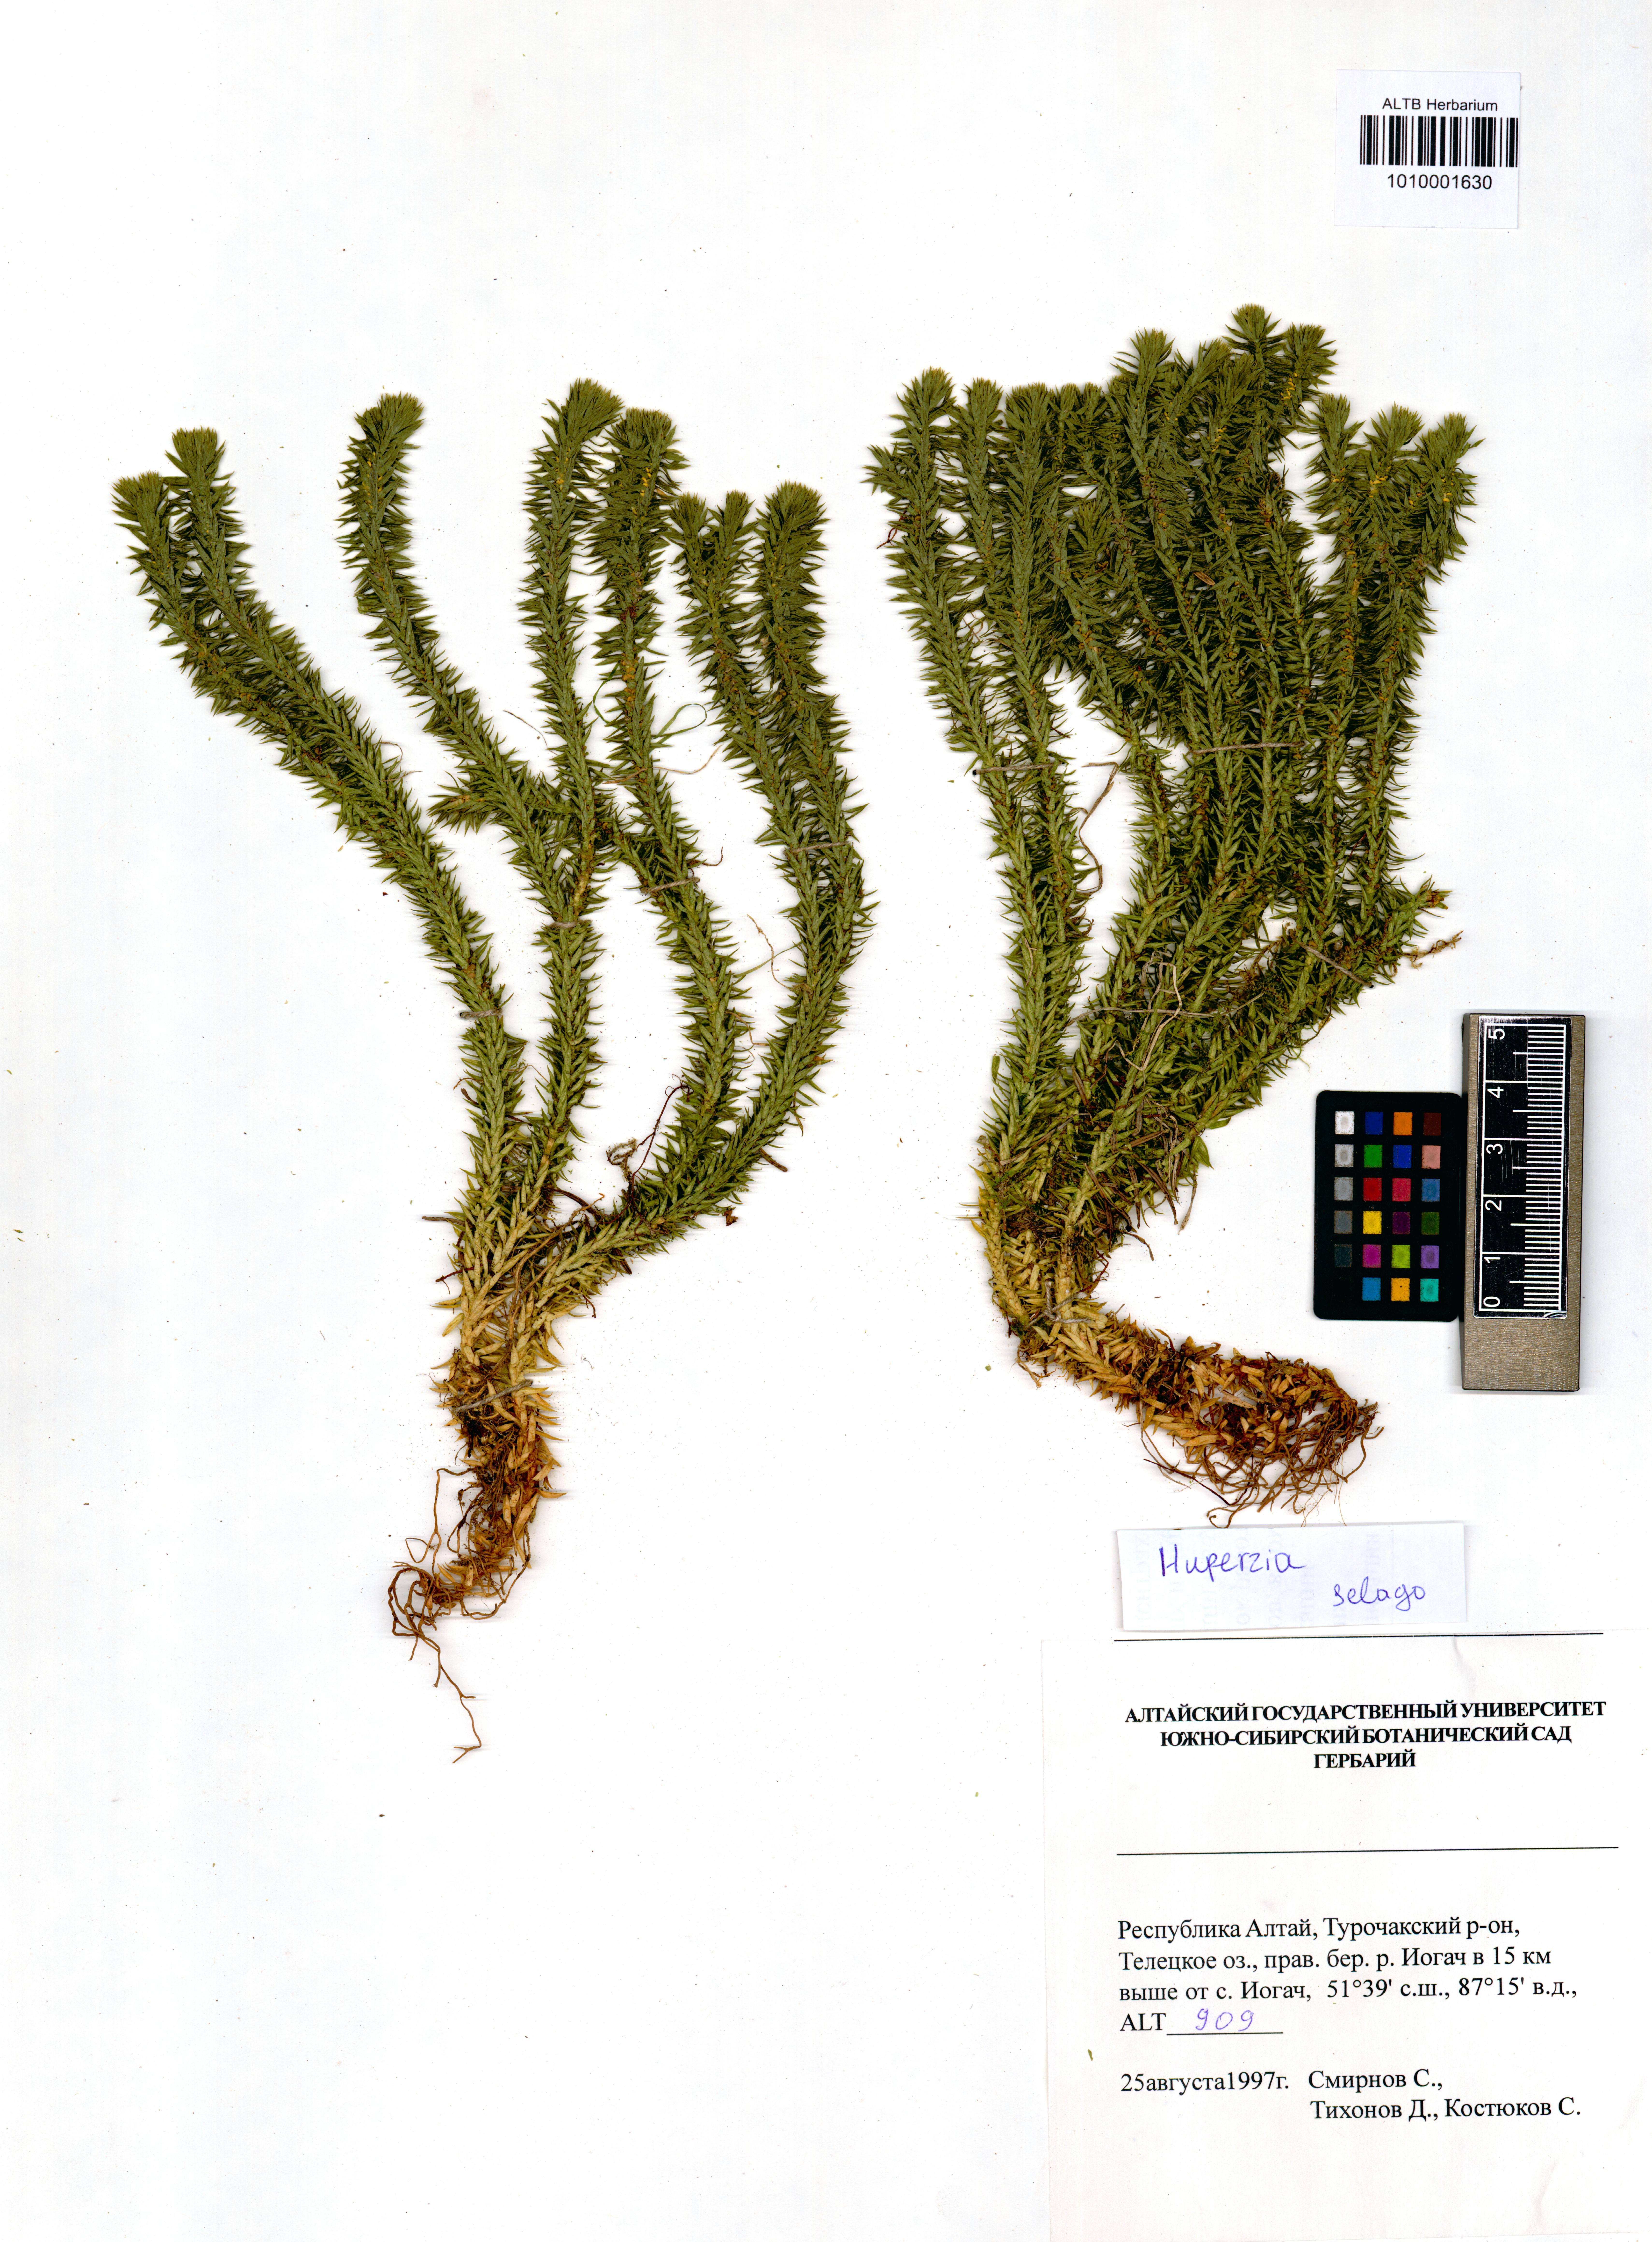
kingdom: Plantae
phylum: Tracheophyta
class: Lycopodiopsida
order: Lycopodiales
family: Lycopodiaceae
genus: Huperzia
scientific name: Huperzia selago
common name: Northern firmoss
